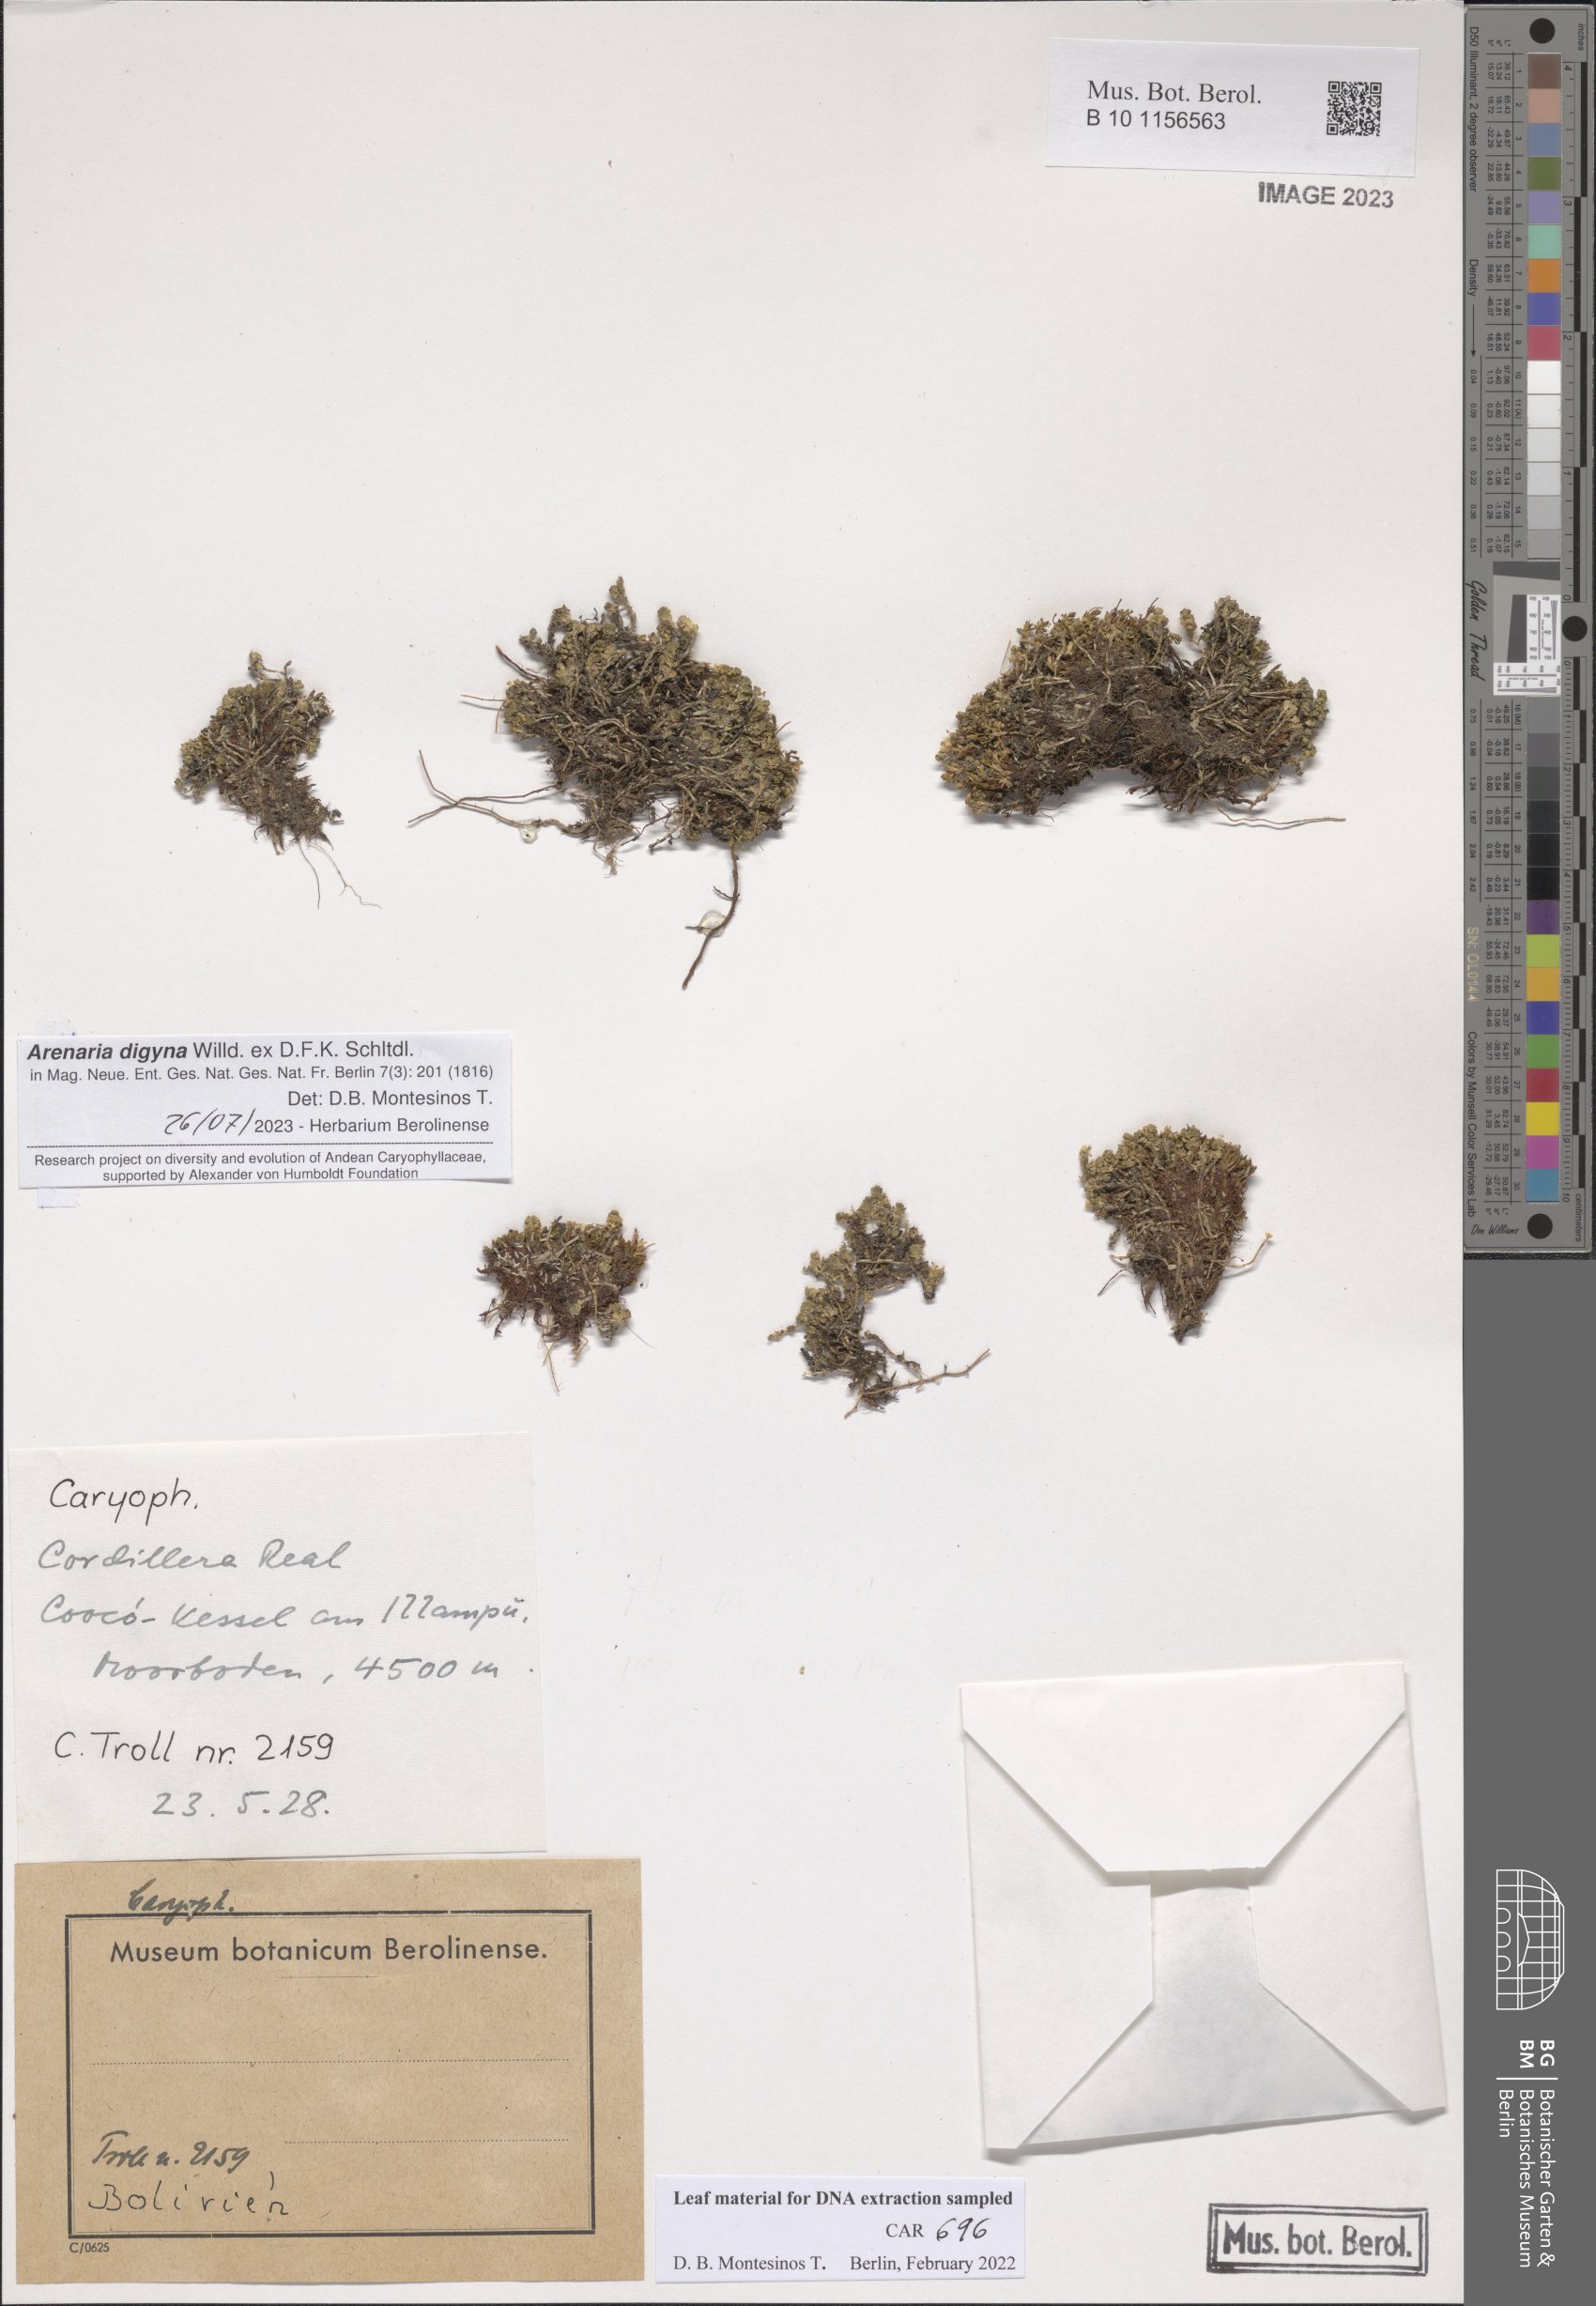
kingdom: Plantae
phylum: Tracheophyta
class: Magnoliopsida
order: Caryophyllales
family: Amaranthaceae
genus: Oxybasis
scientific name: Oxybasis glauca
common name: Glaucous goosefoot
